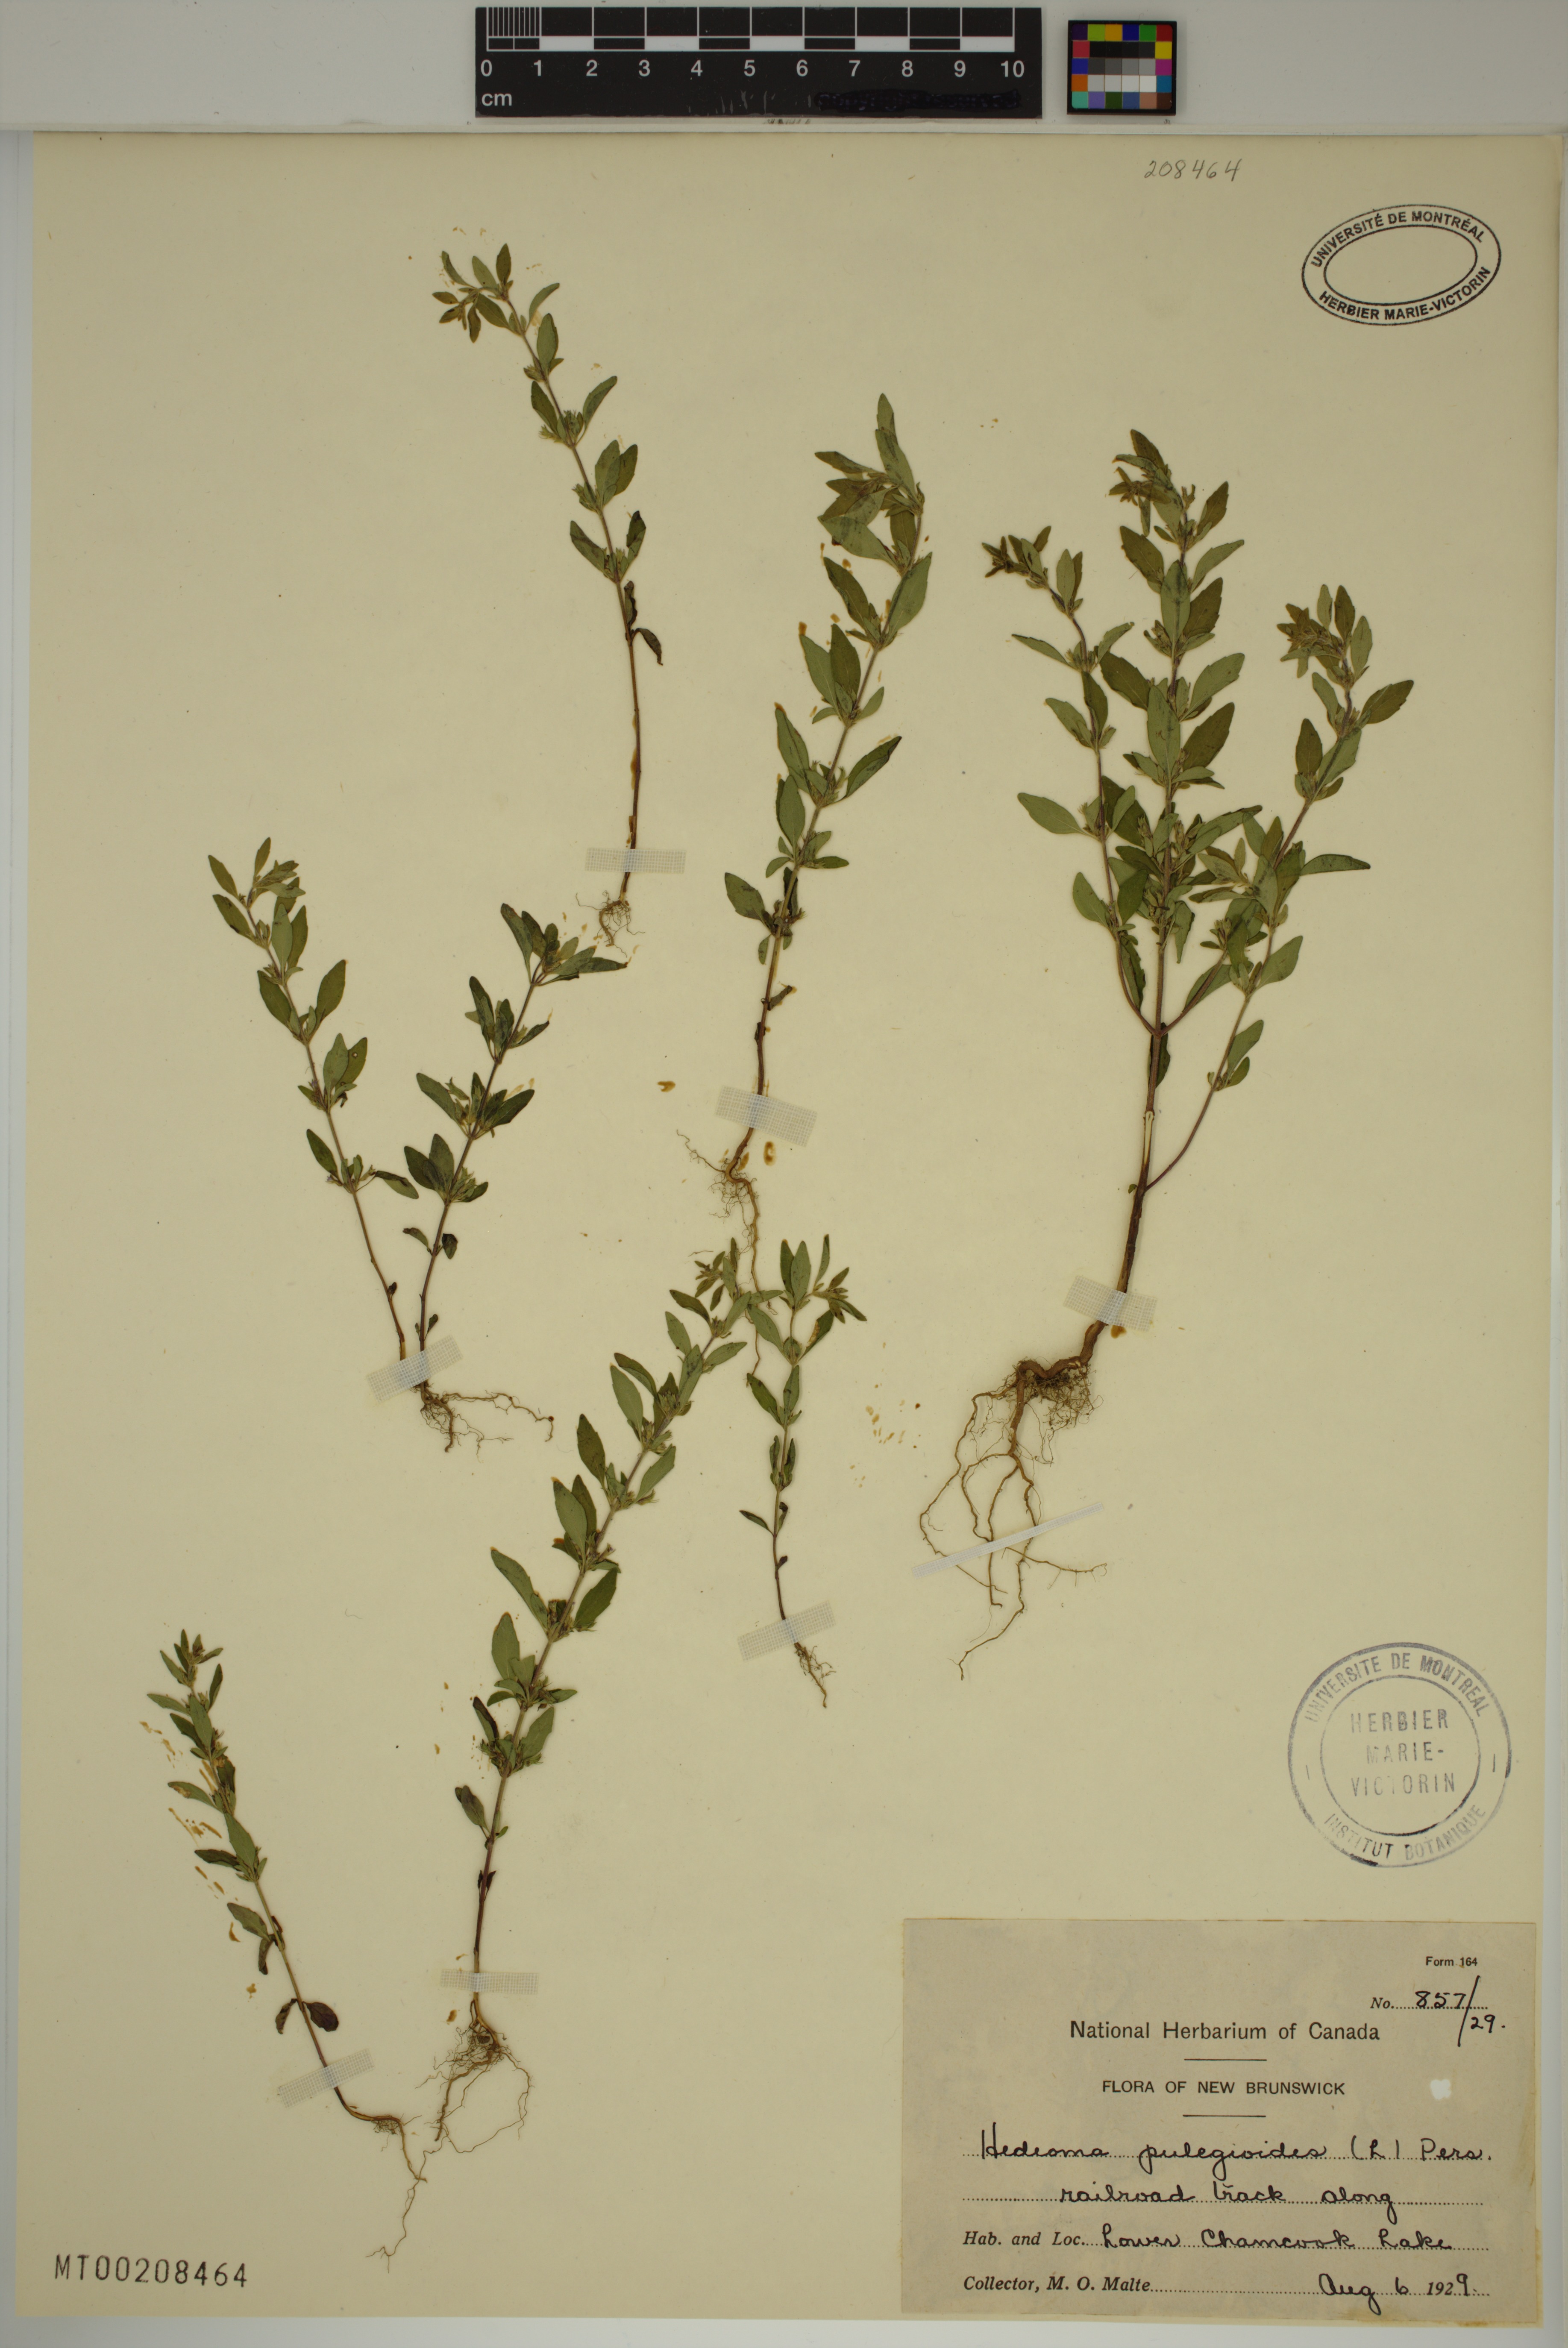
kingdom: Plantae
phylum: Tracheophyta
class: Magnoliopsida
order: Lamiales
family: Lamiaceae
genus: Hedeoma
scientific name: Hedeoma pulegioides
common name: American false pennyroyal
